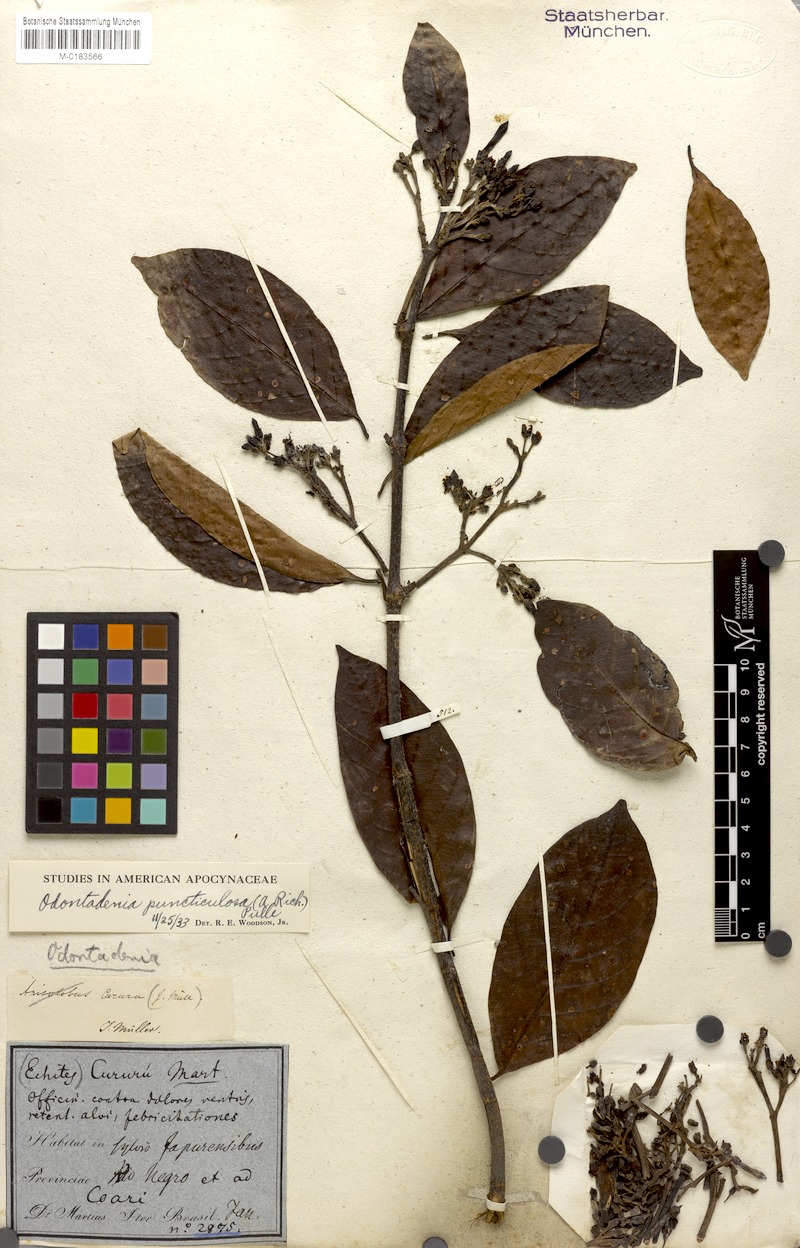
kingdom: Plantae
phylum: Tracheophyta
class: Magnoliopsida
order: Gentianales
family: Apocynaceae
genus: Odontadenia
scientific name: Odontadenia puncticulosa
